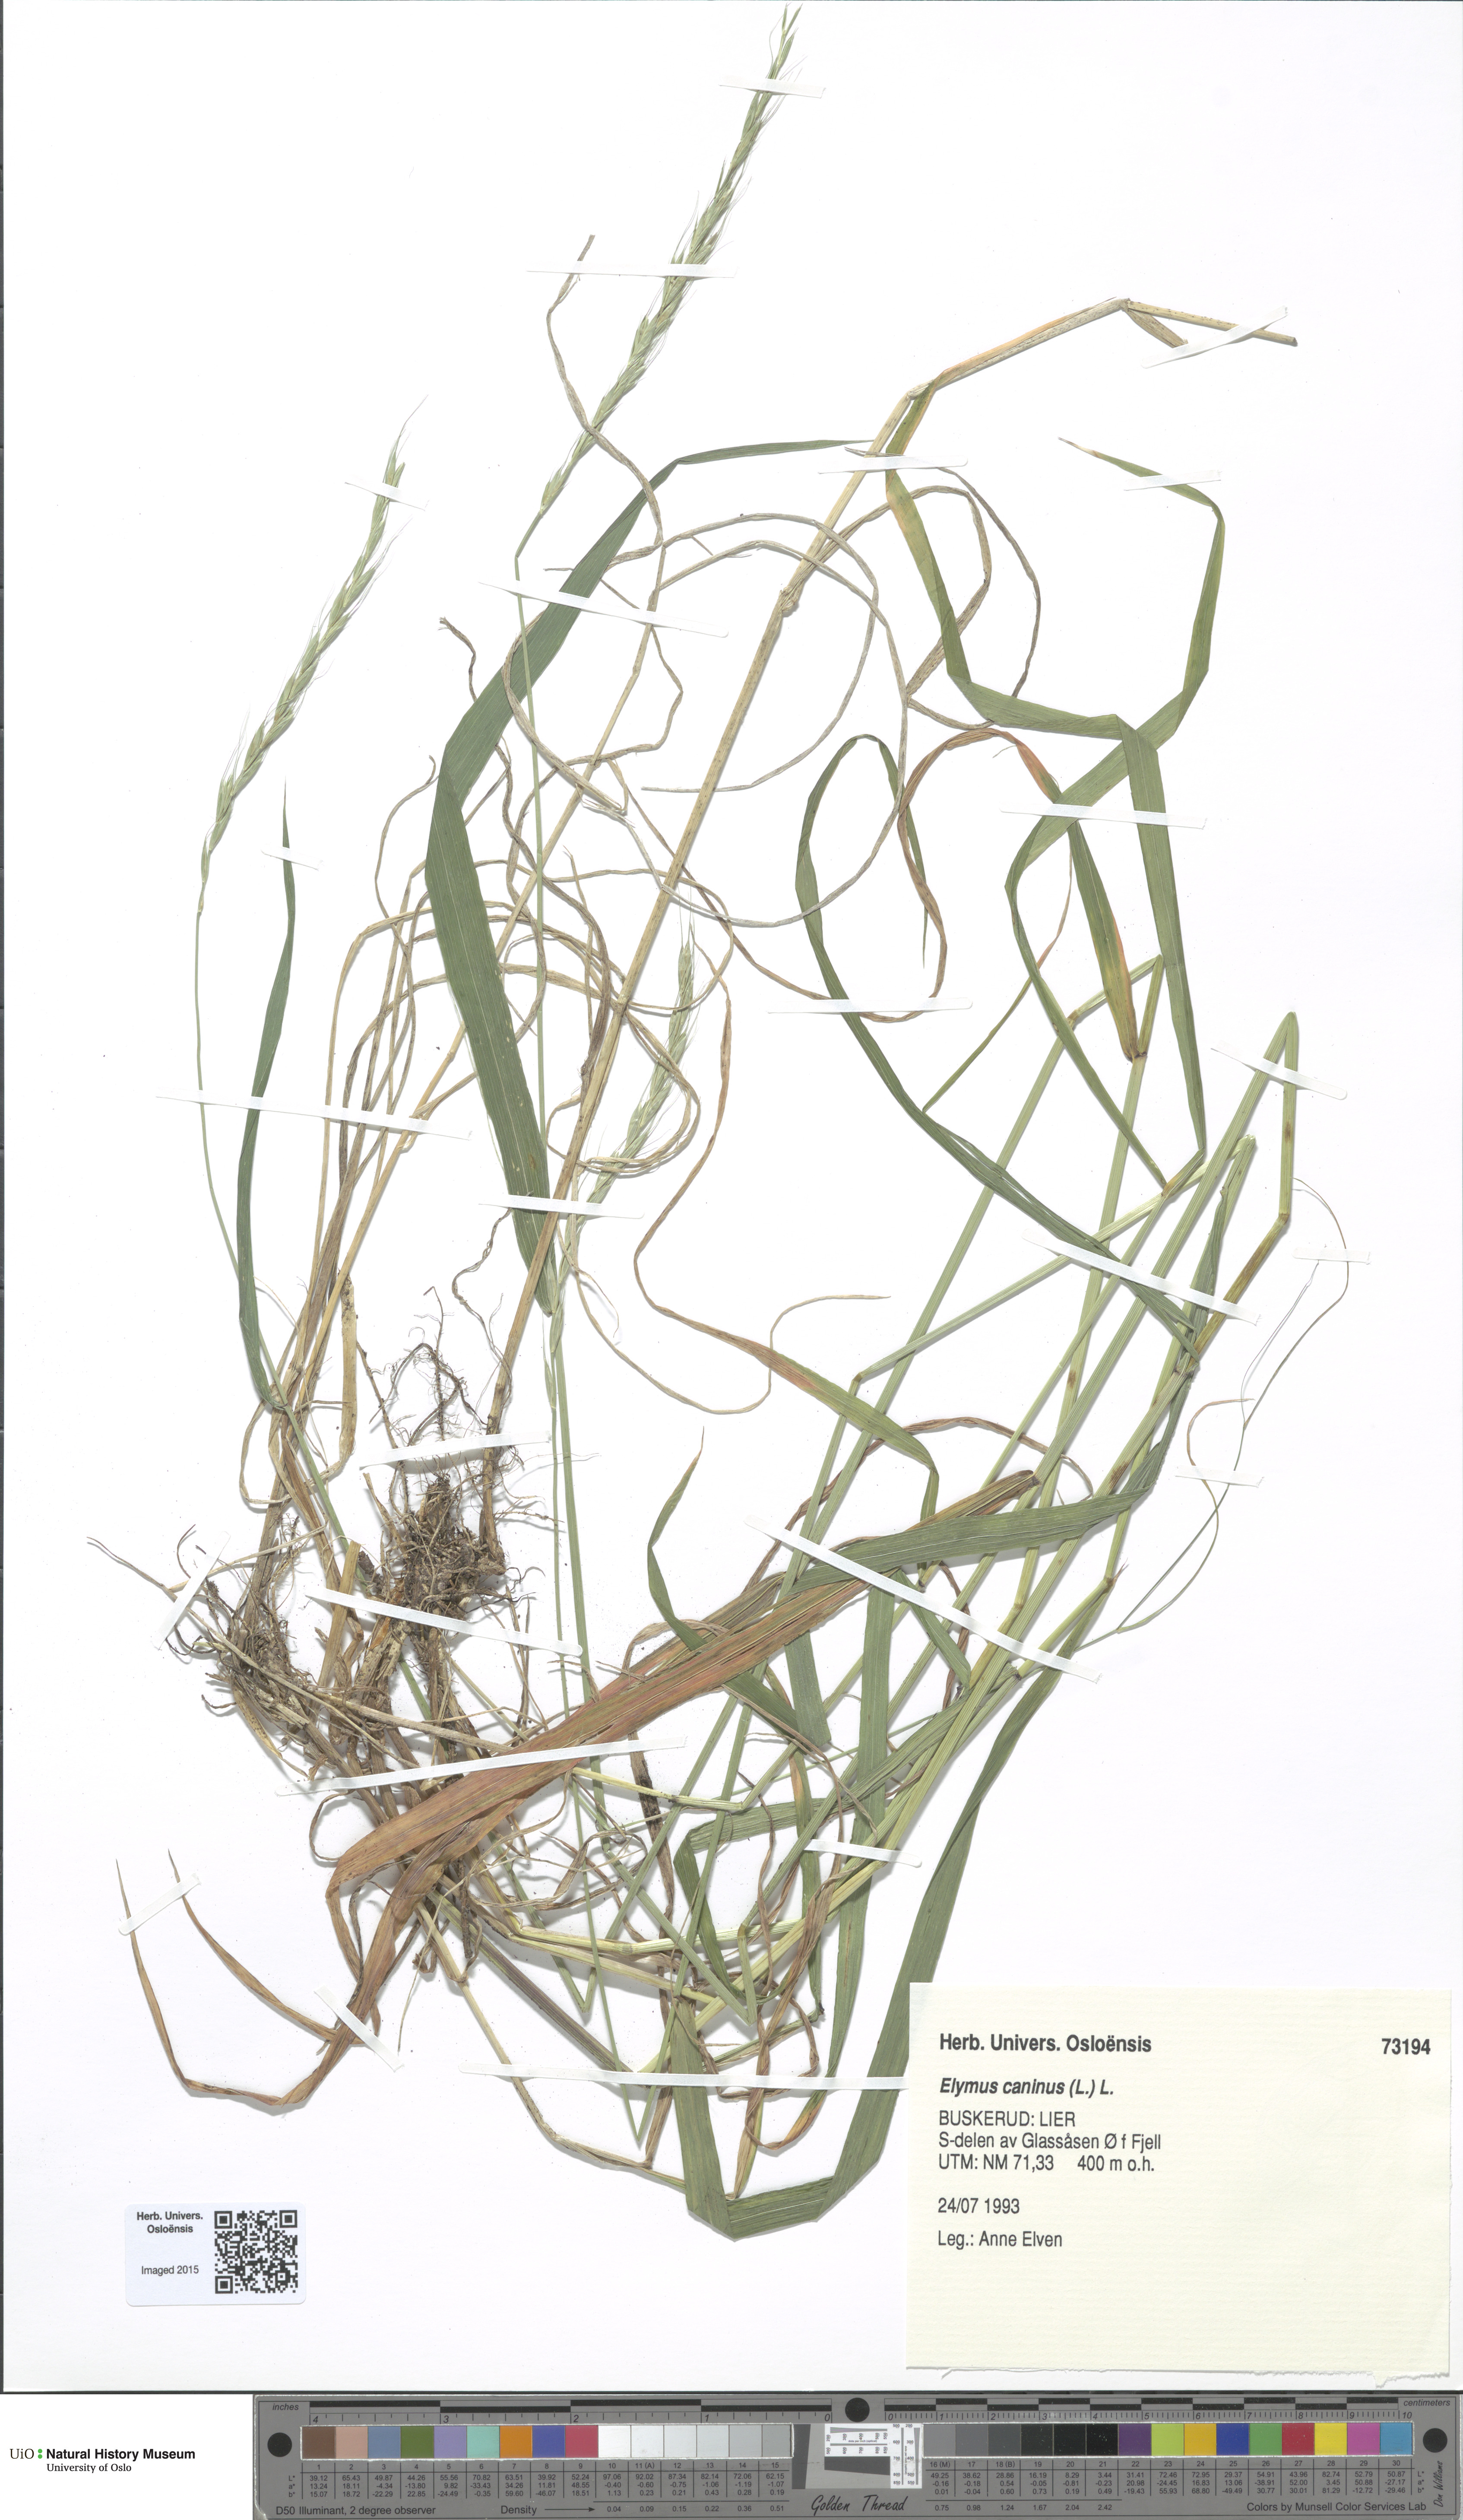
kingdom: Plantae
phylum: Tracheophyta
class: Liliopsida
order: Poales
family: Poaceae
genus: Elymus
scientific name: Elymus caninus
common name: Bearded couch
